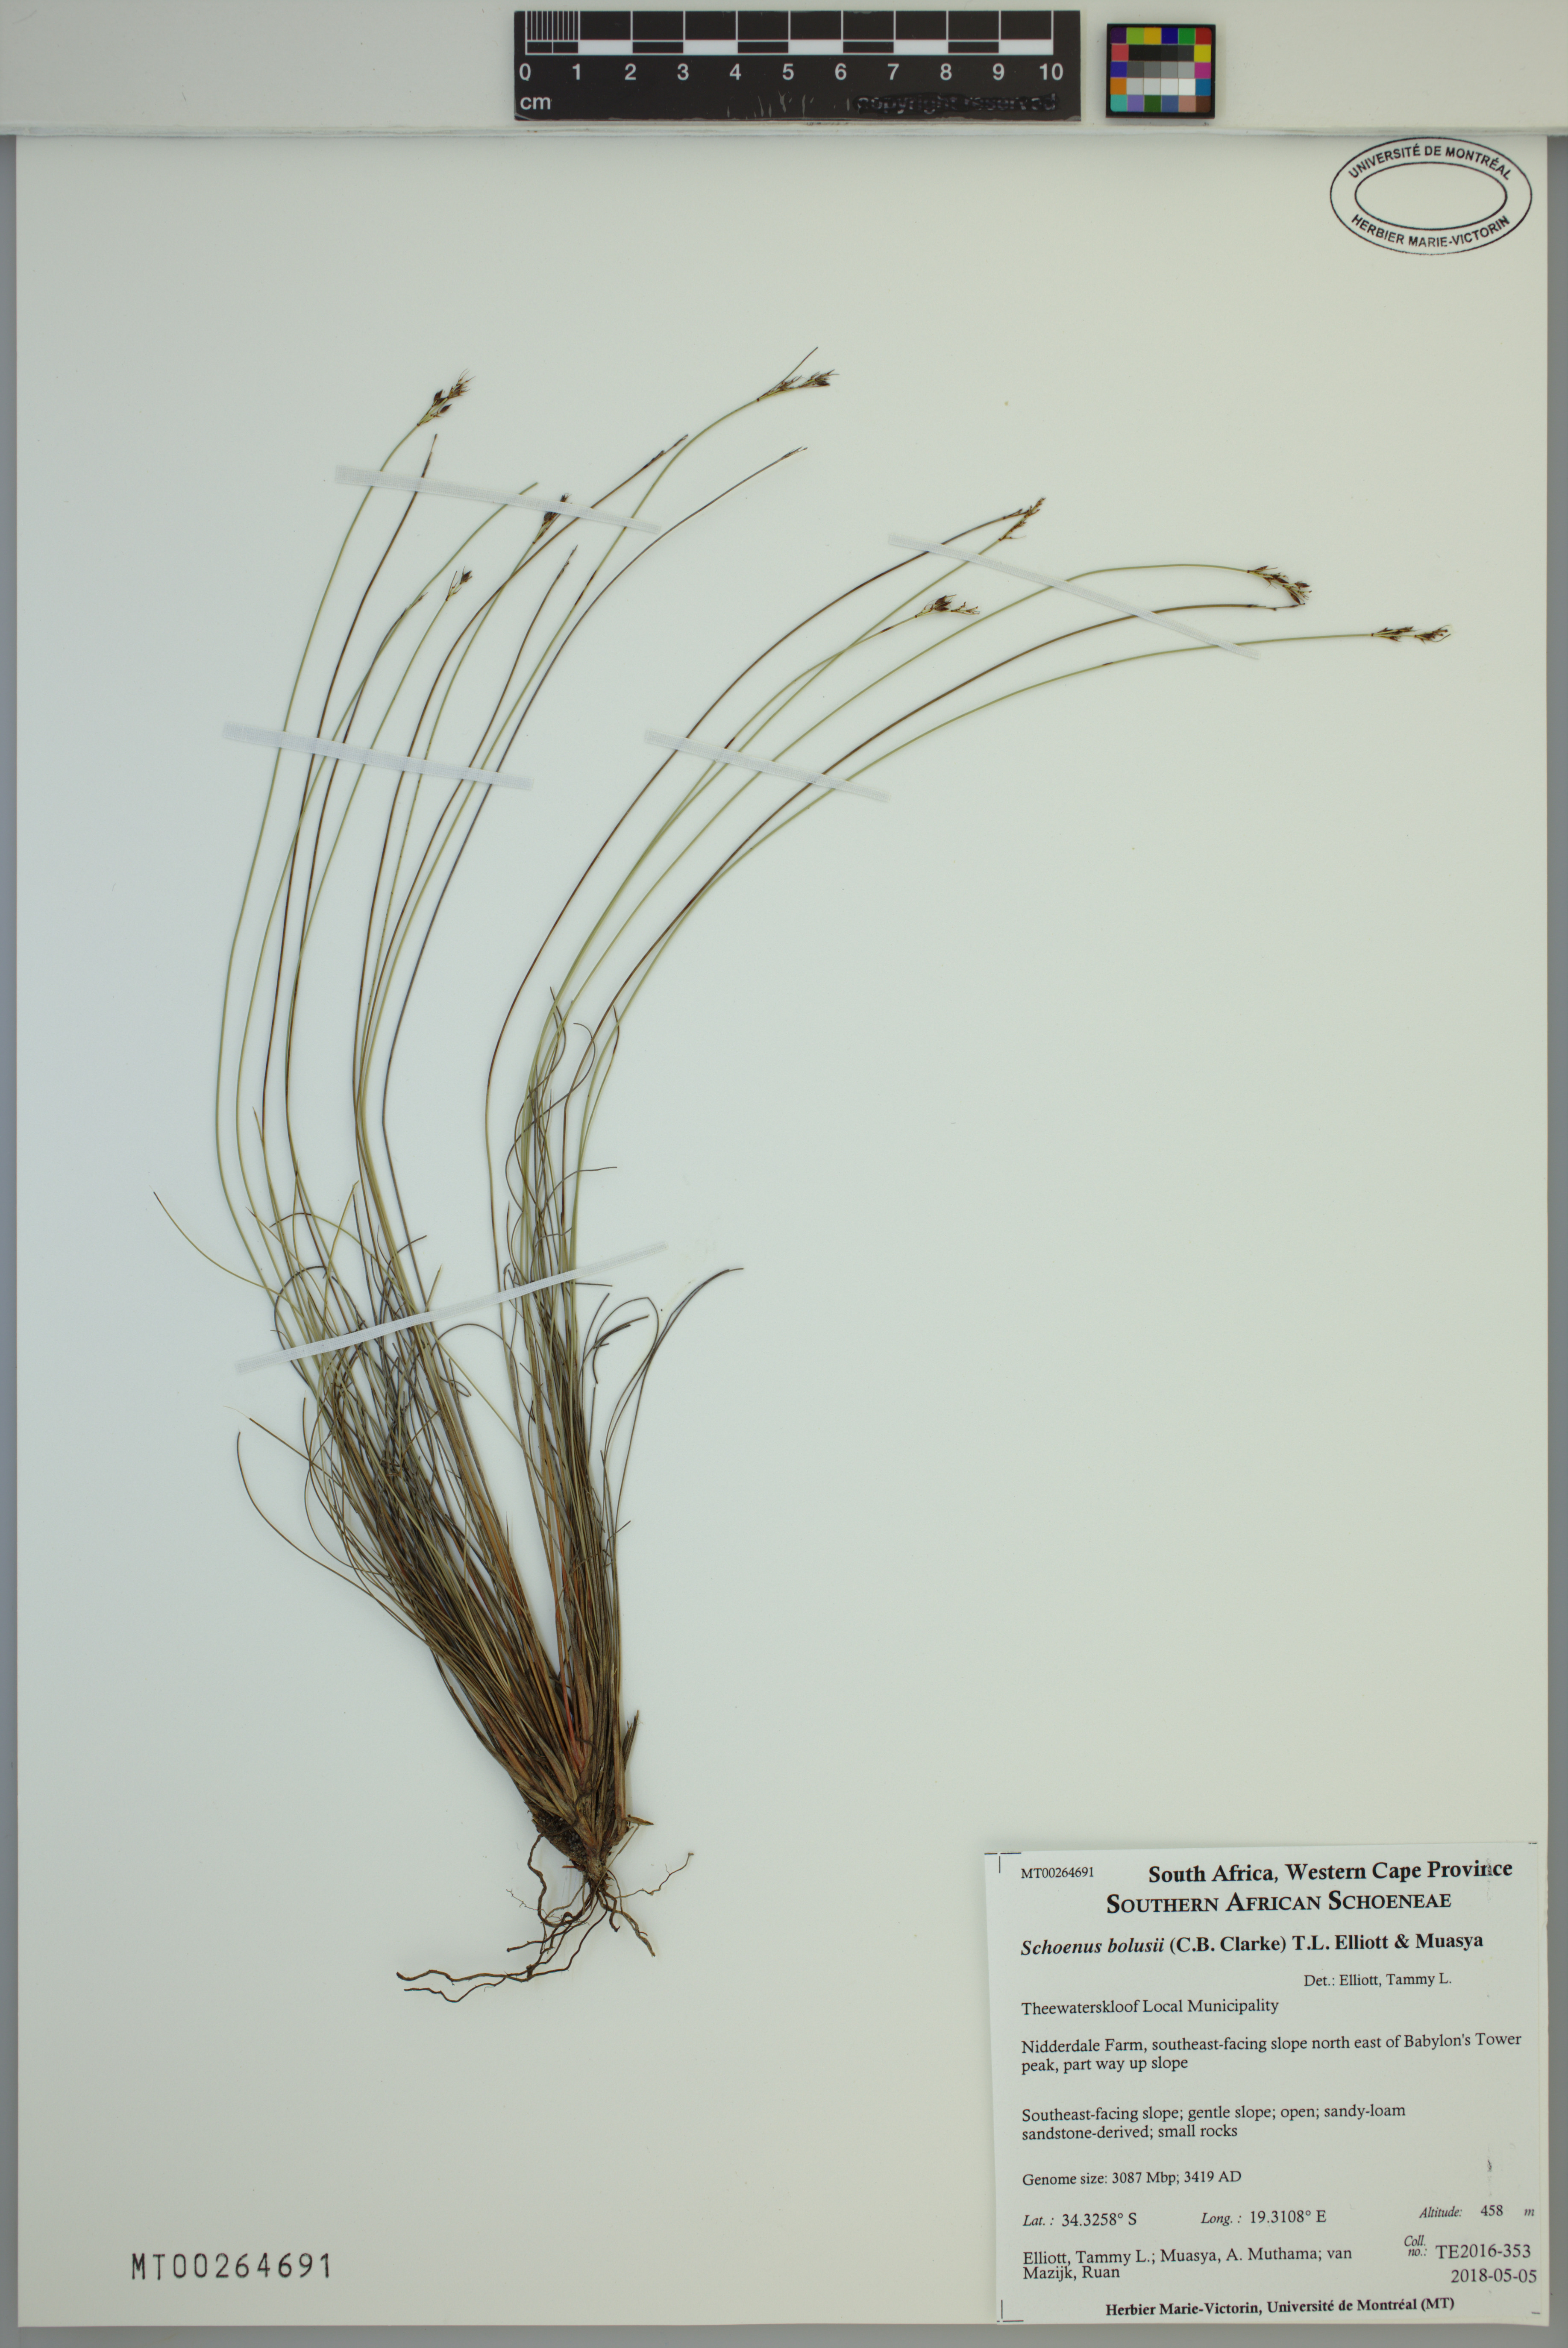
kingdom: Plantae
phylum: Tracheophyta
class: Liliopsida
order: Poales
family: Cyperaceae
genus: Schoenus
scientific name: Schoenus bolusii
